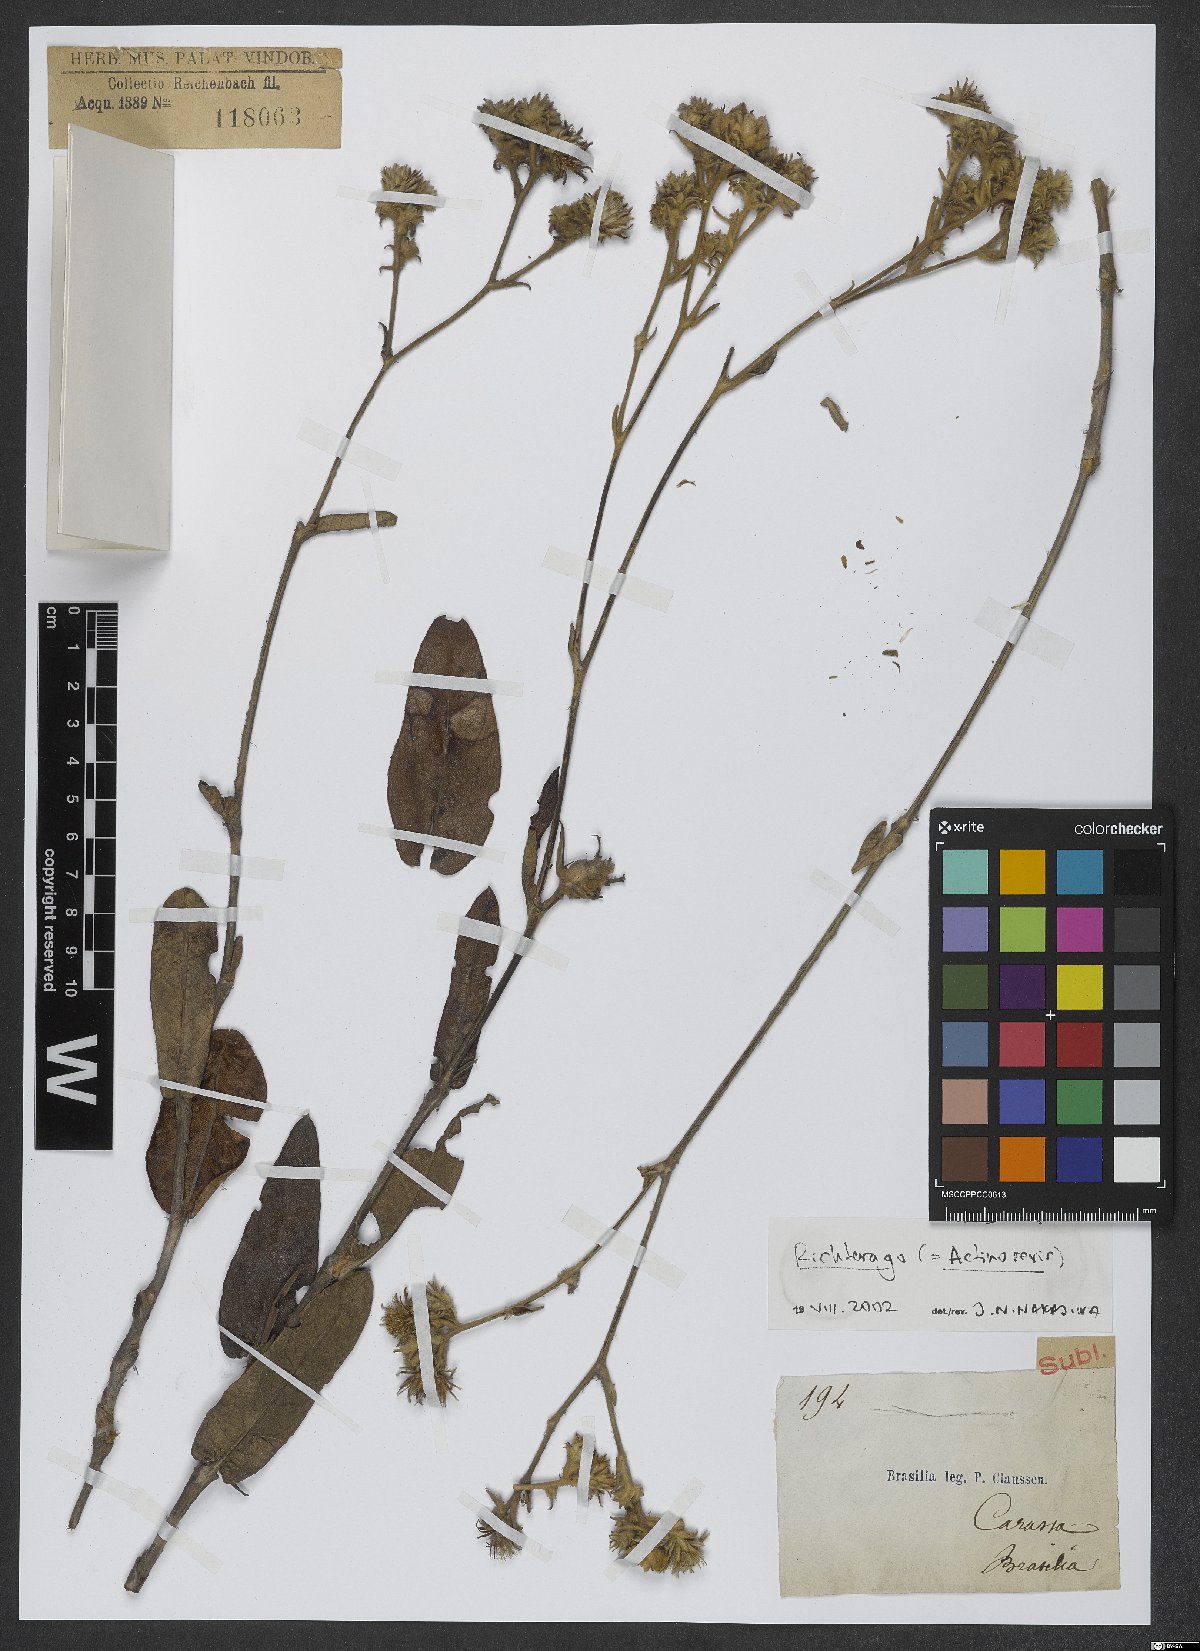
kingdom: Animalia
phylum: Cnidaria
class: Anthozoa
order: Scleractinia
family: Asteroseriidae
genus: Actinoseris
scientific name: Actinoseris
